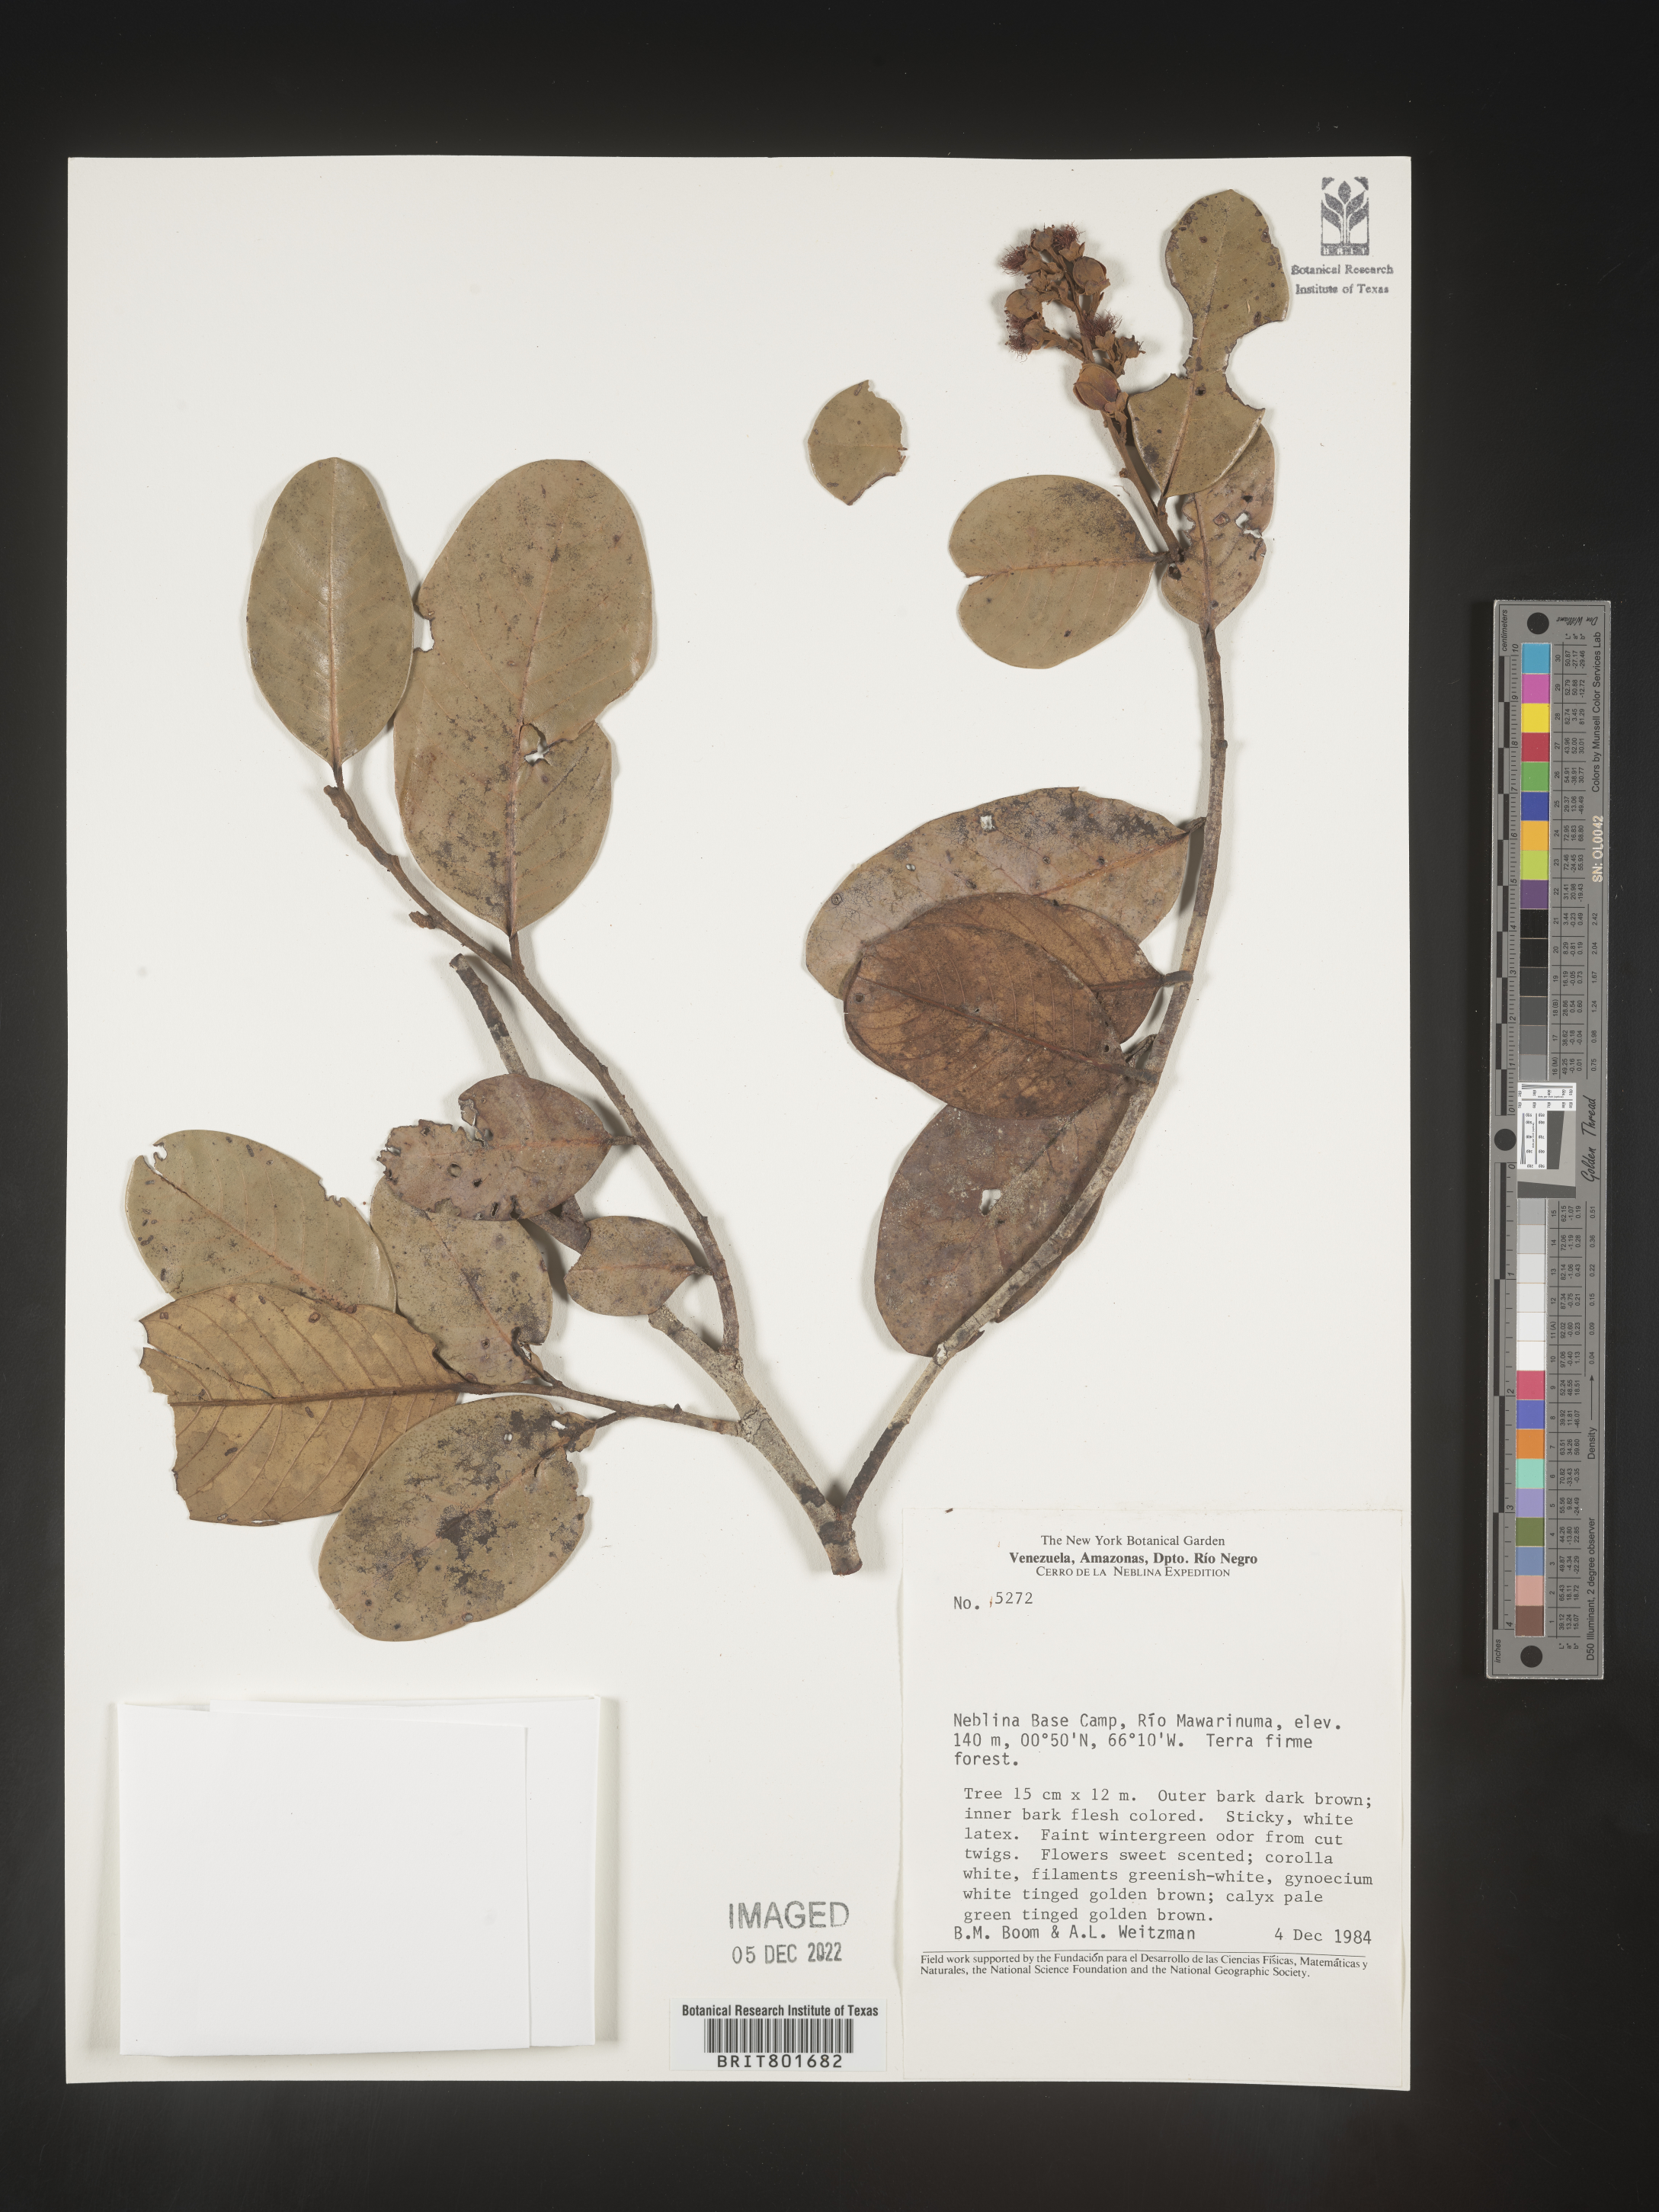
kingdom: Plantae
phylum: Tracheophyta
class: Magnoliopsida
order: Malpighiales
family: Clusiaceae
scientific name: Clusiaceae
